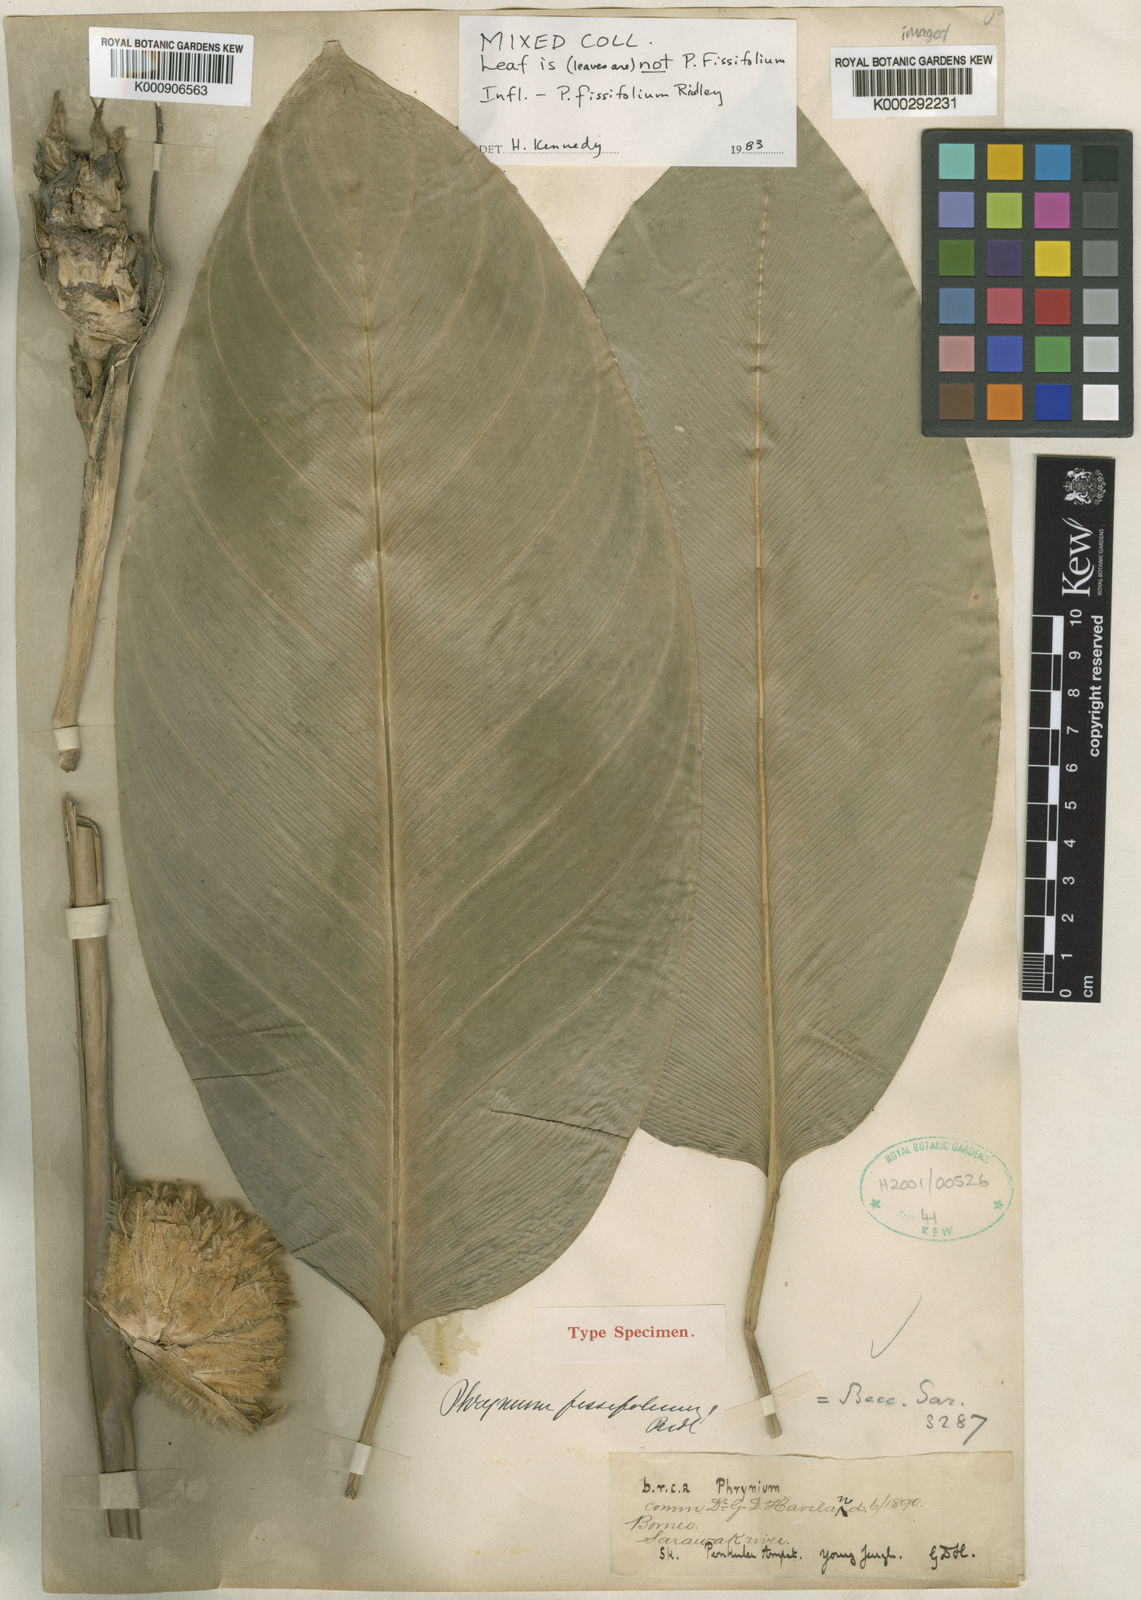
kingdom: Plantae
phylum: Tracheophyta
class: Liliopsida
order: Zingiberales
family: Marantaceae
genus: Phrynium
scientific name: Phrynium fissifolium
